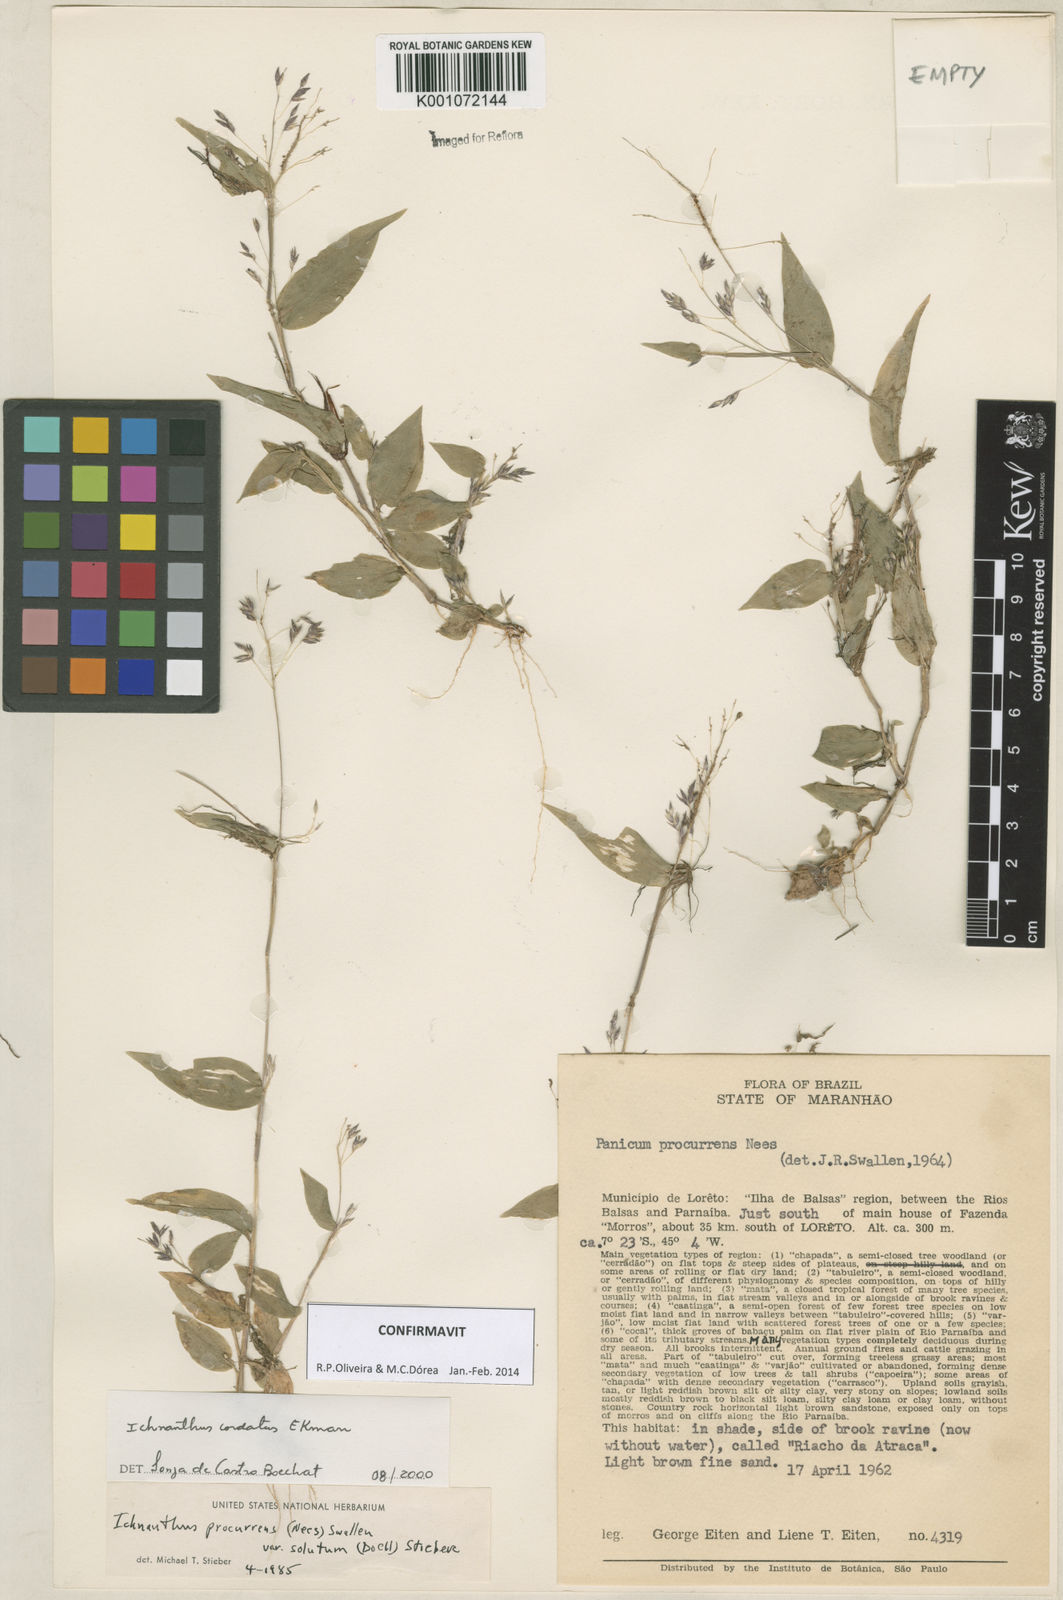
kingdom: Plantae
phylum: Tracheophyta
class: Liliopsida
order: Poales
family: Poaceae
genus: Oedochloa
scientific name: Oedochloa mayarensis
